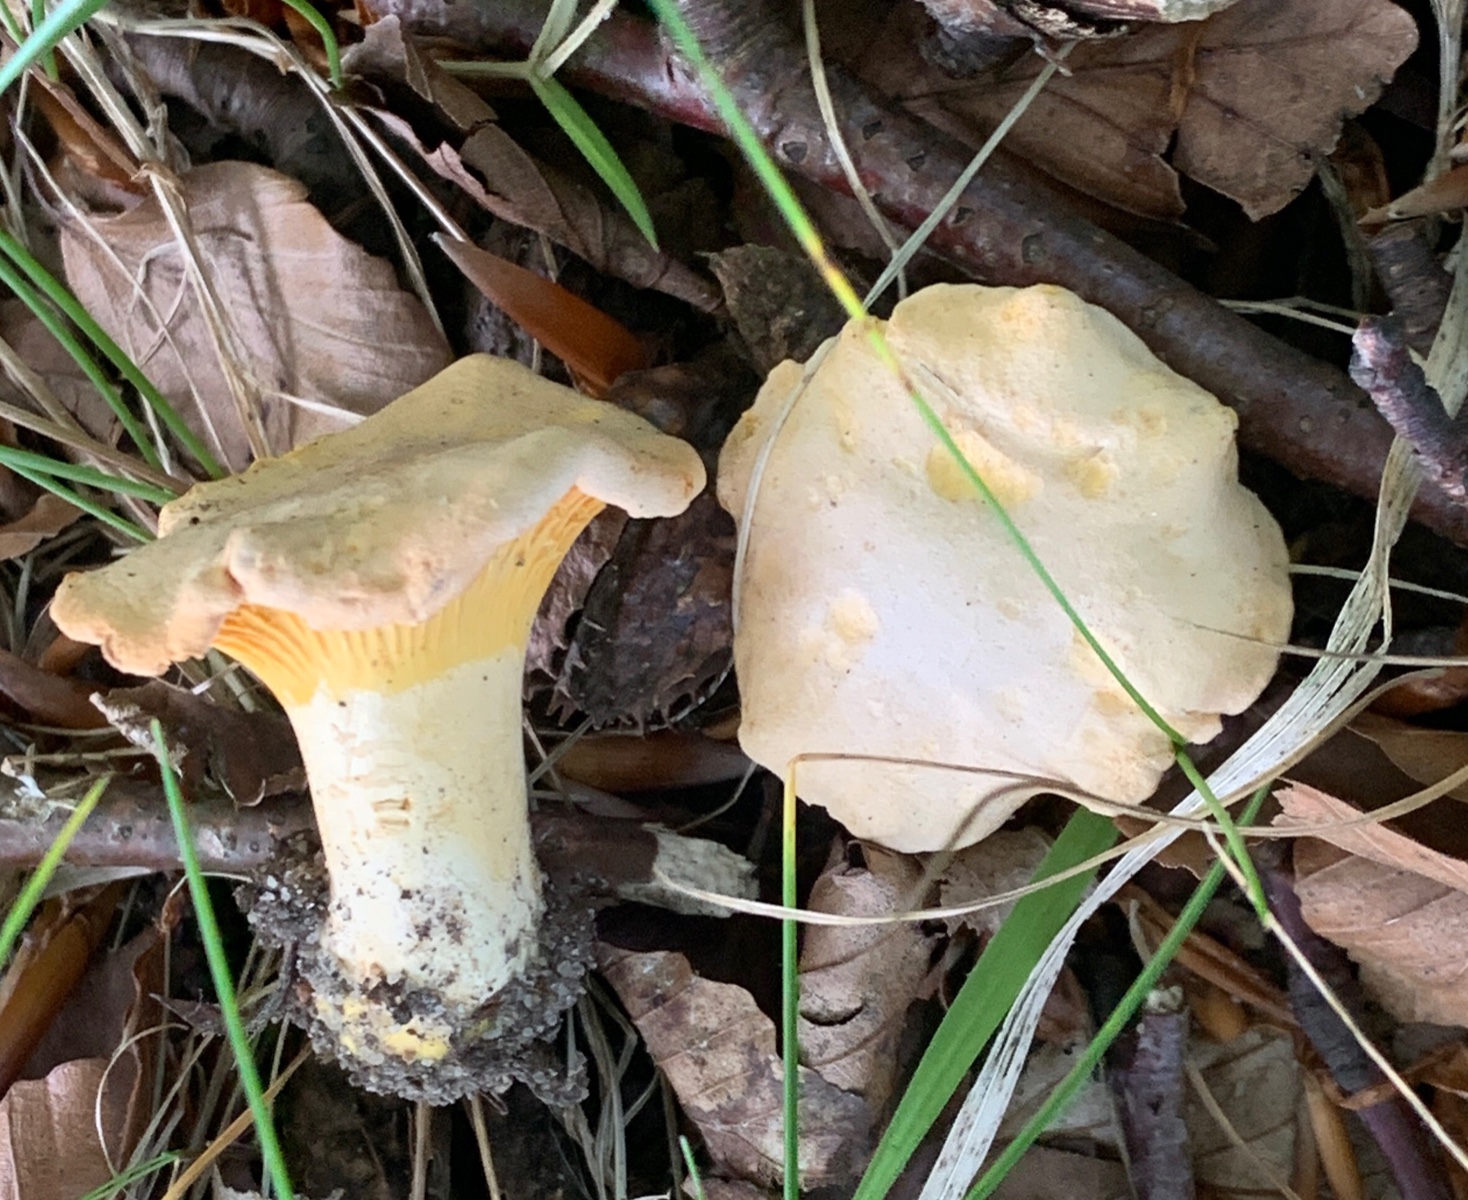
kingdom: Fungi
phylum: Basidiomycota
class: Agaricomycetes
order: Cantharellales
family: Hydnaceae
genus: Cantharellus
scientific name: Cantharellus pallens
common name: bleg kantarel
